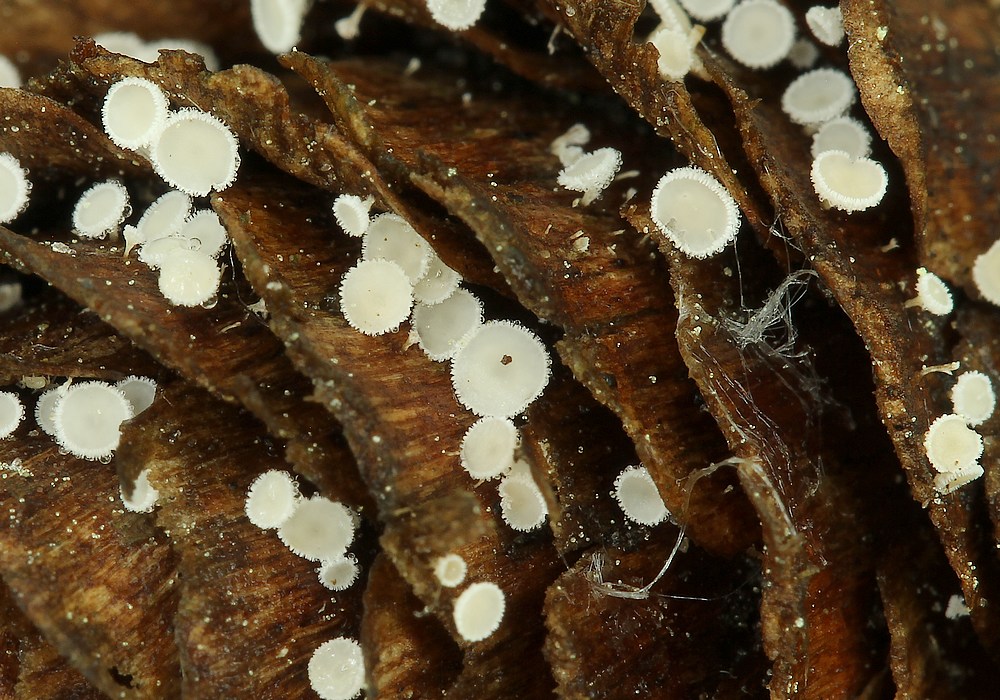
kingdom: Fungi
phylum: Ascomycota
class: Leotiomycetes
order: Helotiales
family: Lachnaceae
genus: Lachnum
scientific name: Lachnum virgineum
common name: jomfru-frynseskive
